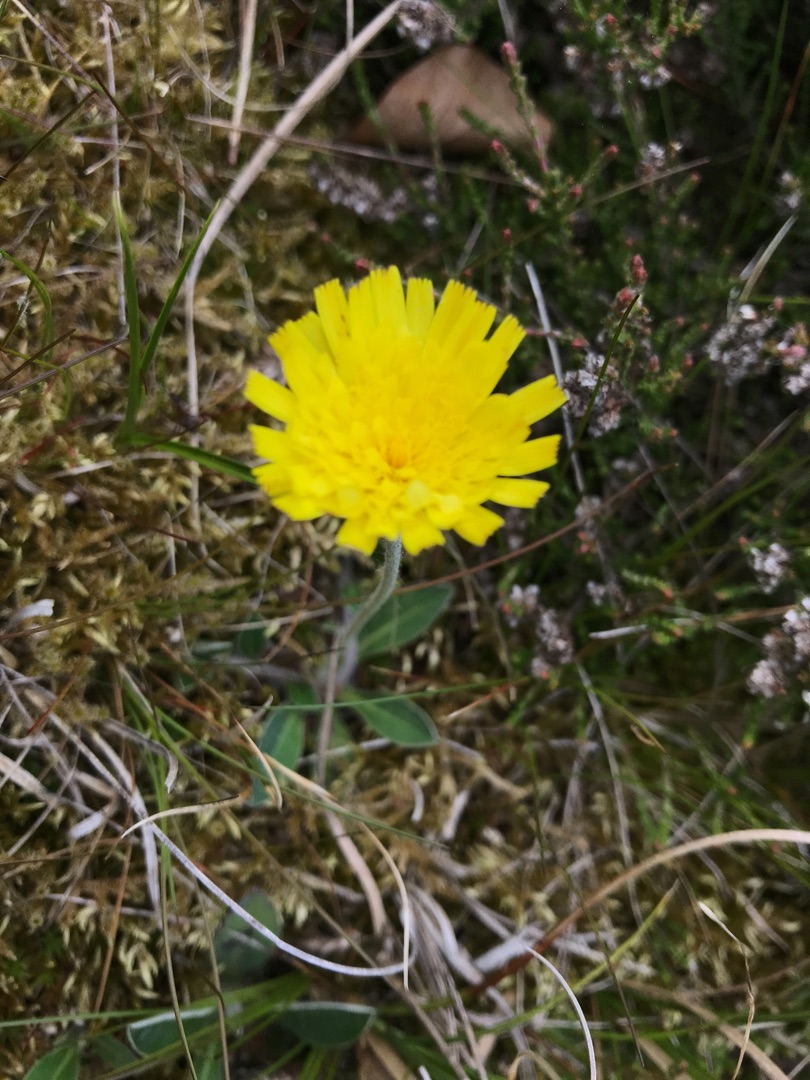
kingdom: Plantae
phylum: Tracheophyta
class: Magnoliopsida
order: Asterales
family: Asteraceae
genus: Pilosella
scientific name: Pilosella officinarum
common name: Håret høgeurt
